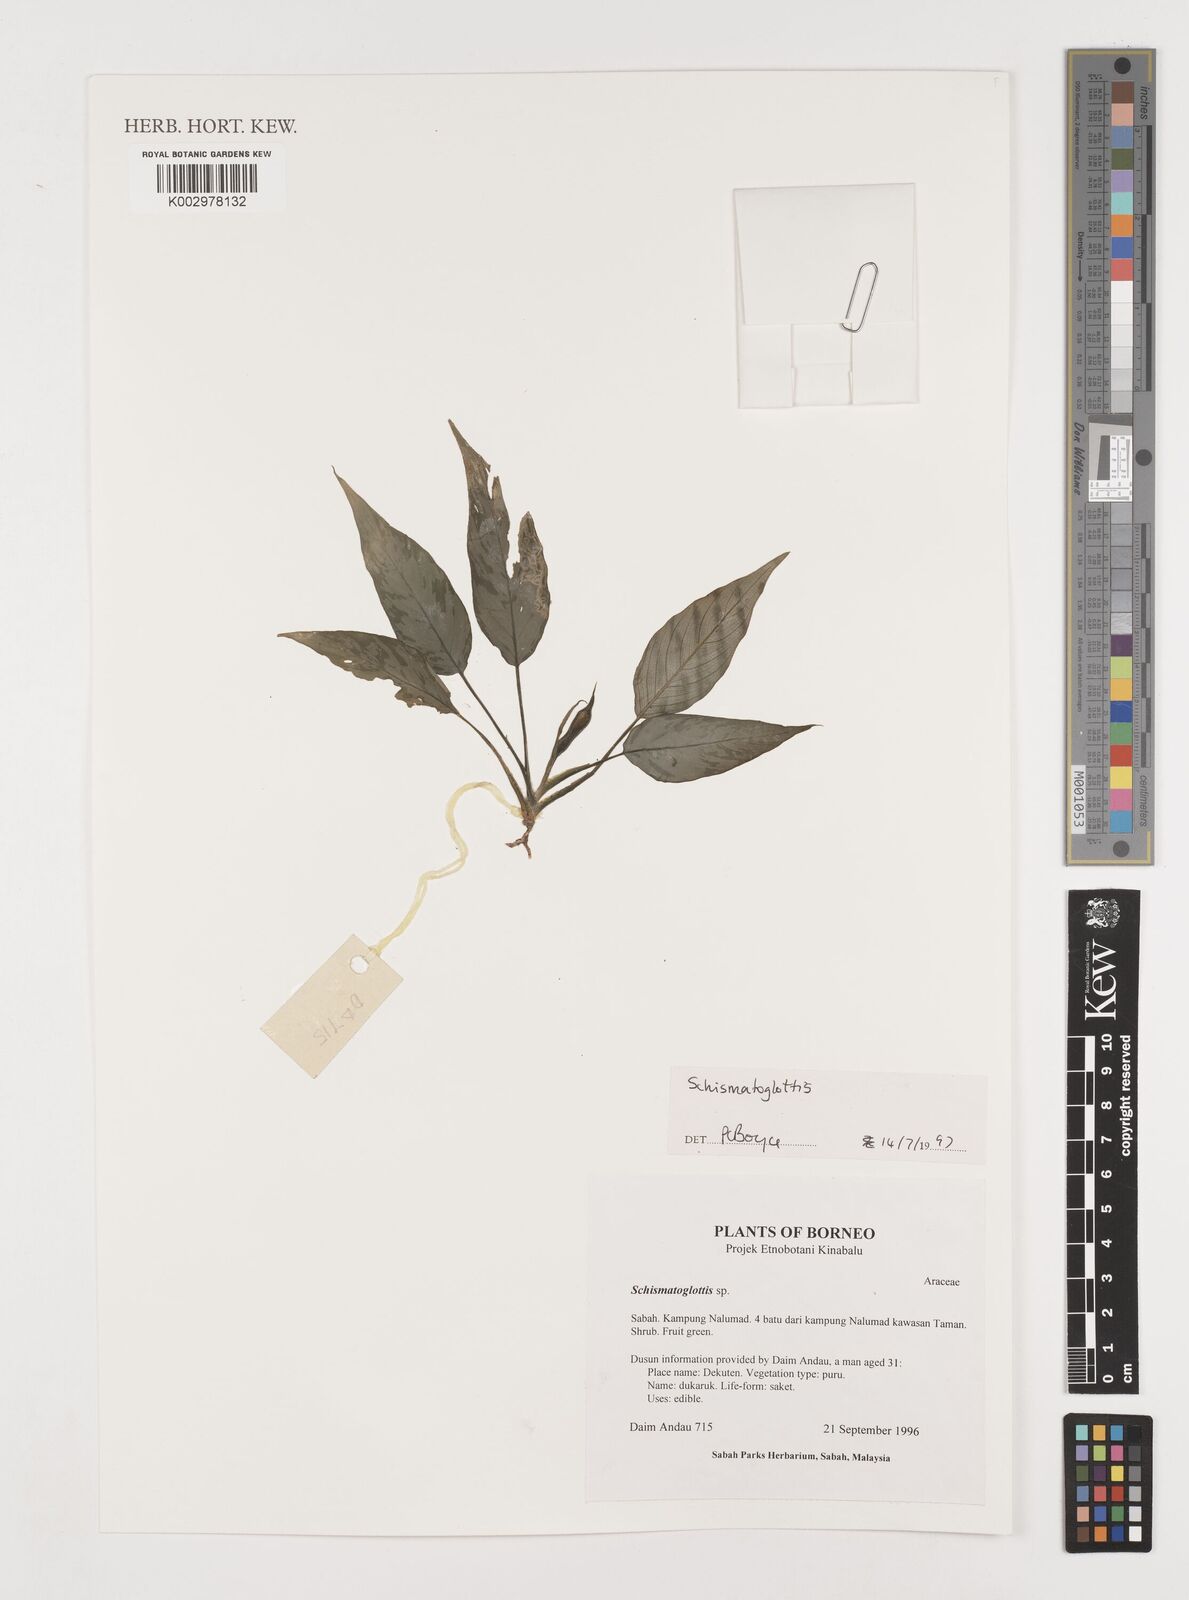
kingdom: Plantae
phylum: Tracheophyta
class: Liliopsida
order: Alismatales
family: Araceae
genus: Schismatoglottis
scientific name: Schismatoglottis
